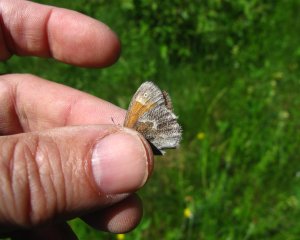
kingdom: Animalia
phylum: Arthropoda
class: Insecta
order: Lepidoptera
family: Nymphalidae
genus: Coenonympha
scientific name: Coenonympha tullia
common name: Large Heath
